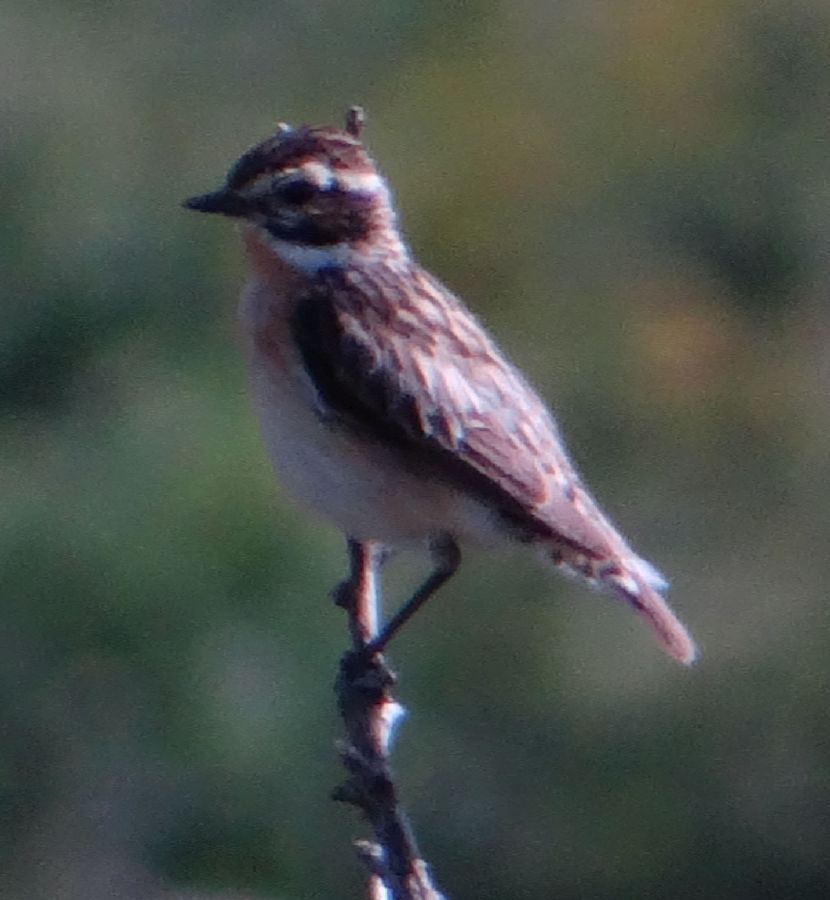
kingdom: Animalia
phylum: Chordata
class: Aves
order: Passeriformes
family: Muscicapidae
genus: Saxicola
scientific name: Saxicola rubetra
